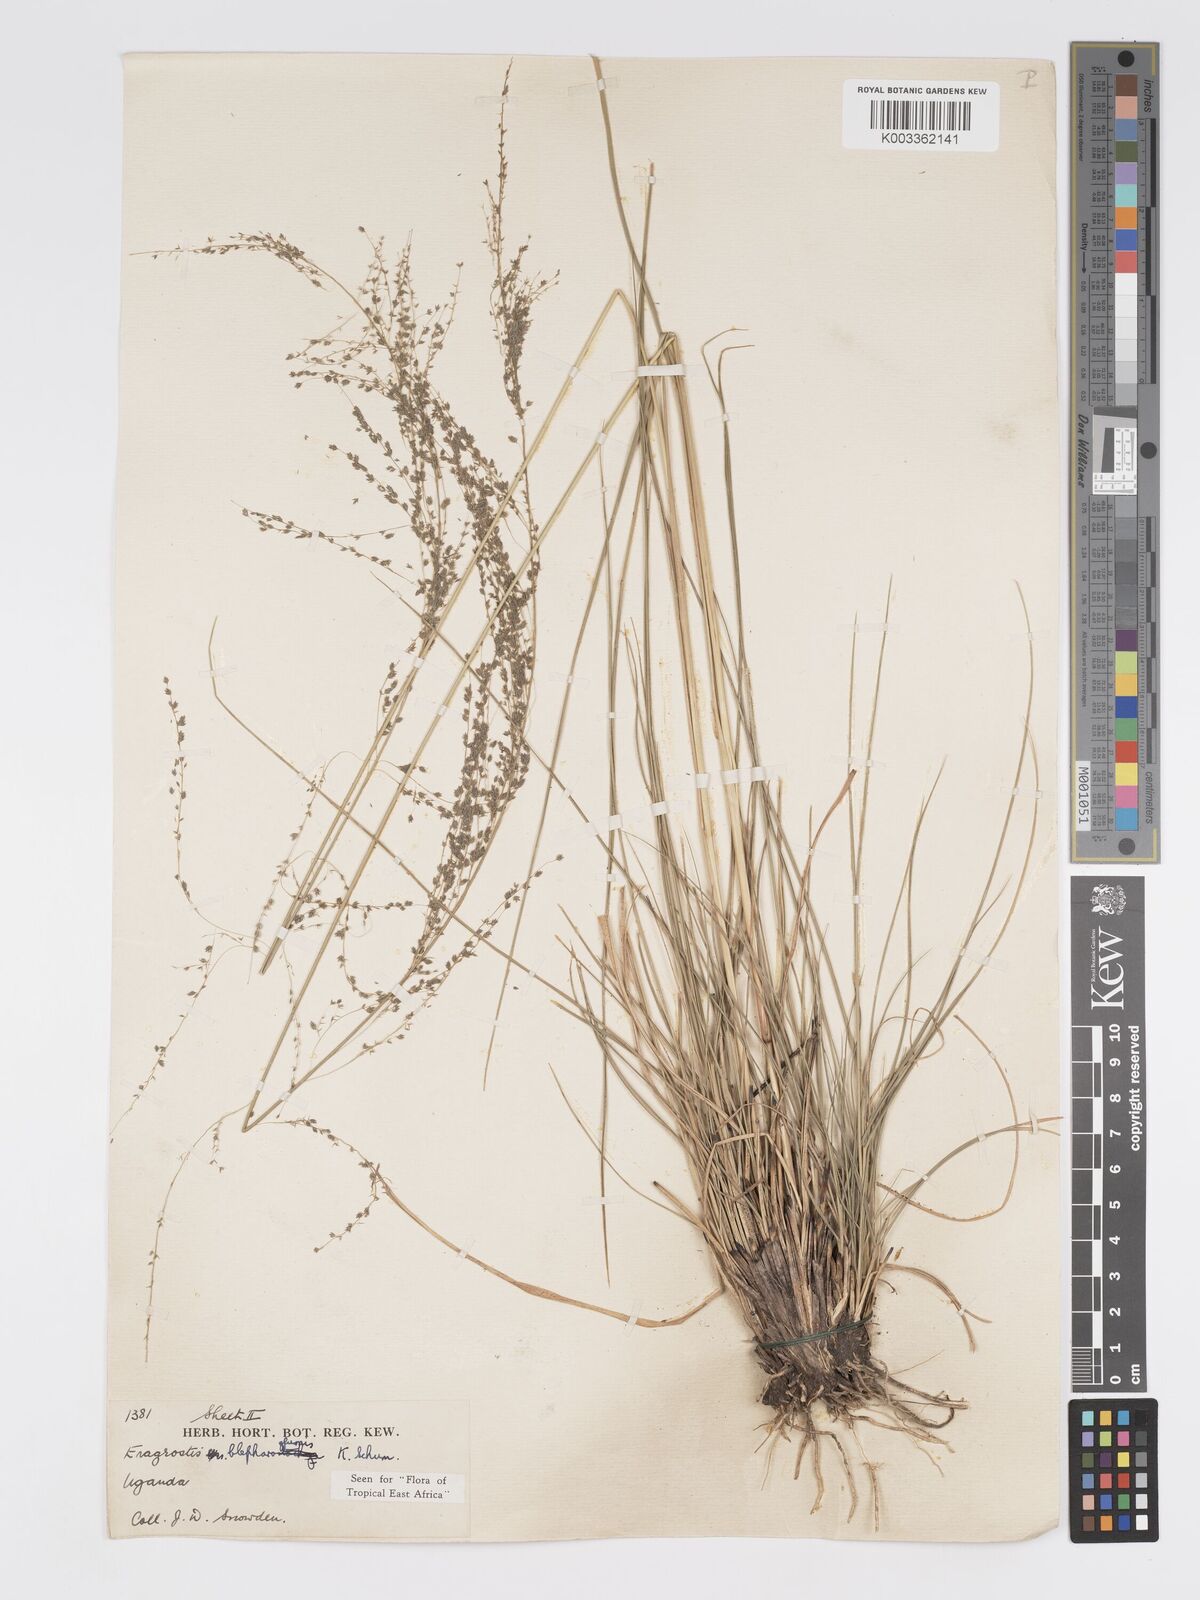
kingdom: Plantae
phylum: Tracheophyta
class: Liliopsida
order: Poales
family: Poaceae
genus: Eragrostis
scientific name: Eragrostis olivacea
